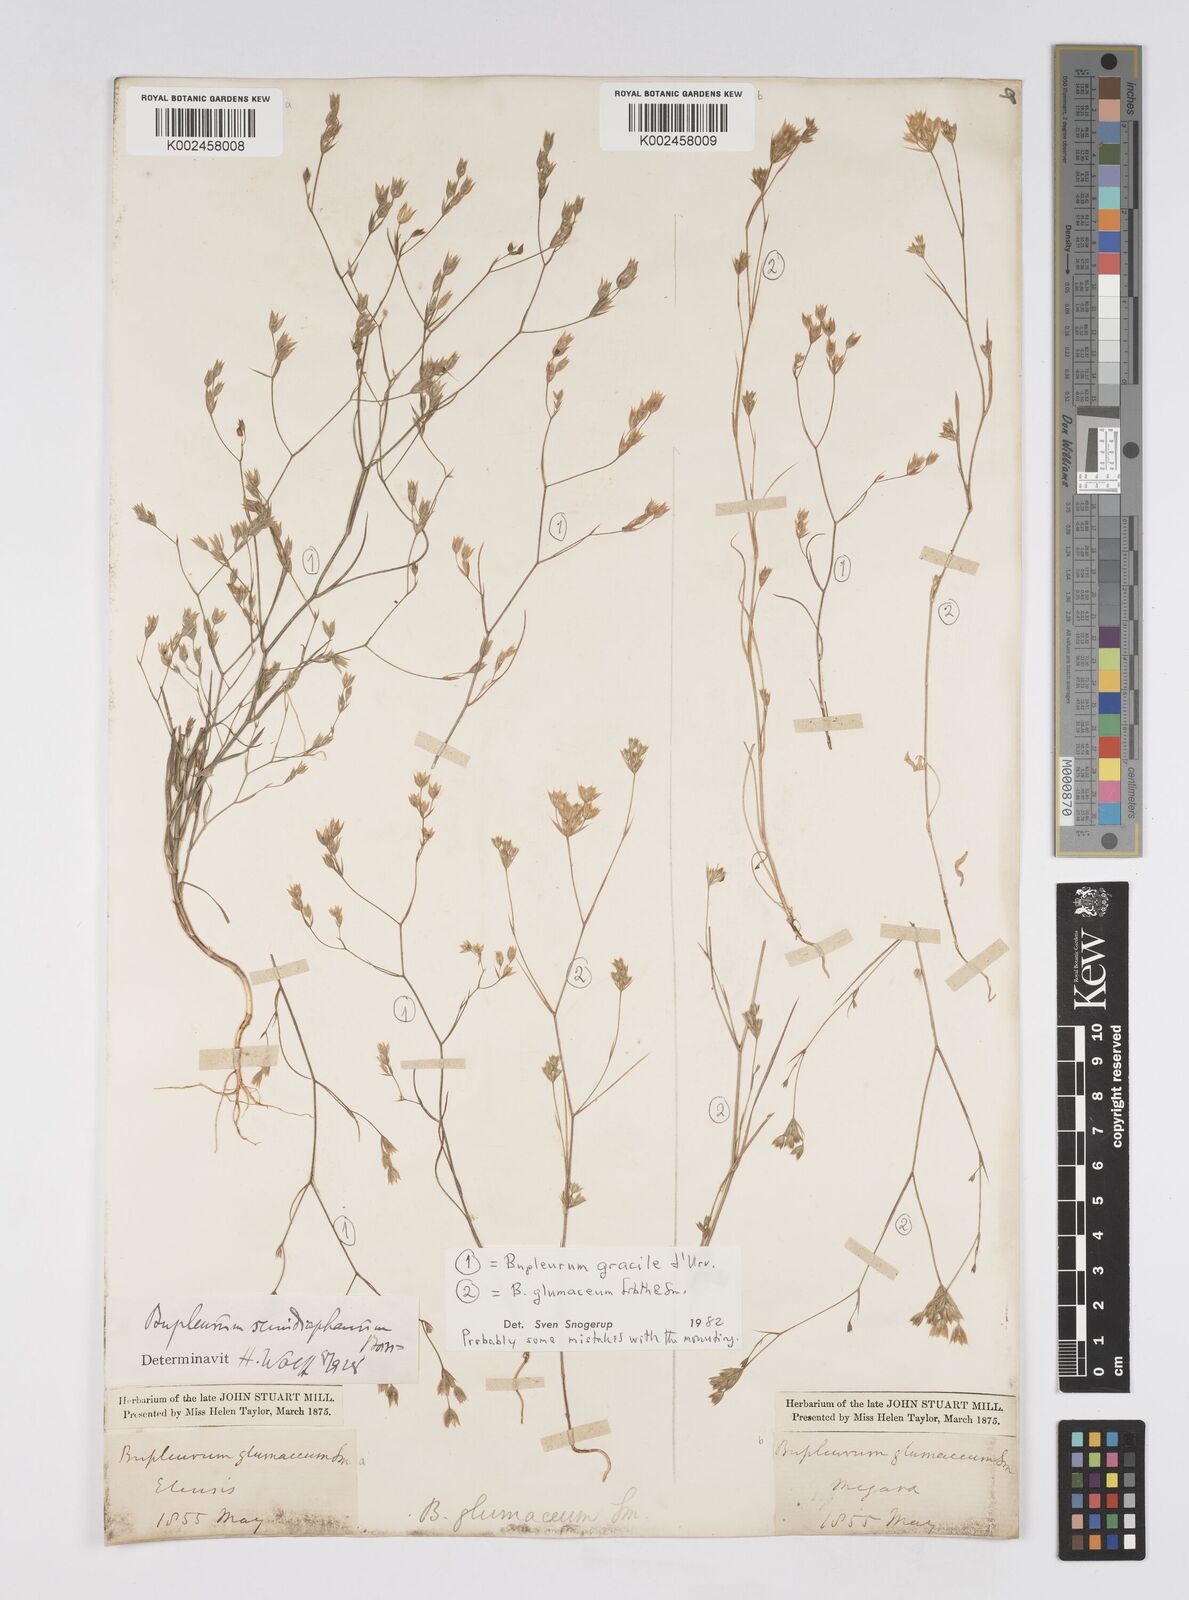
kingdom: Plantae
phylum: Tracheophyta
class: Magnoliopsida
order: Apiales
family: Apiaceae
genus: Bupleurum
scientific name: Bupleurum glumaceum
